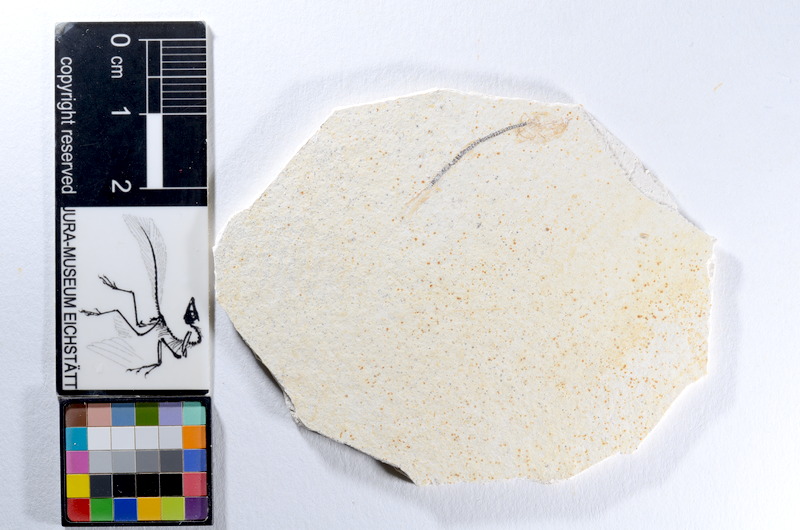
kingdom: Animalia
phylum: Chordata
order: Salmoniformes
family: Orthogonikleithridae
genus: Orthogonikleithrus
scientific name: Orthogonikleithrus hoelli
